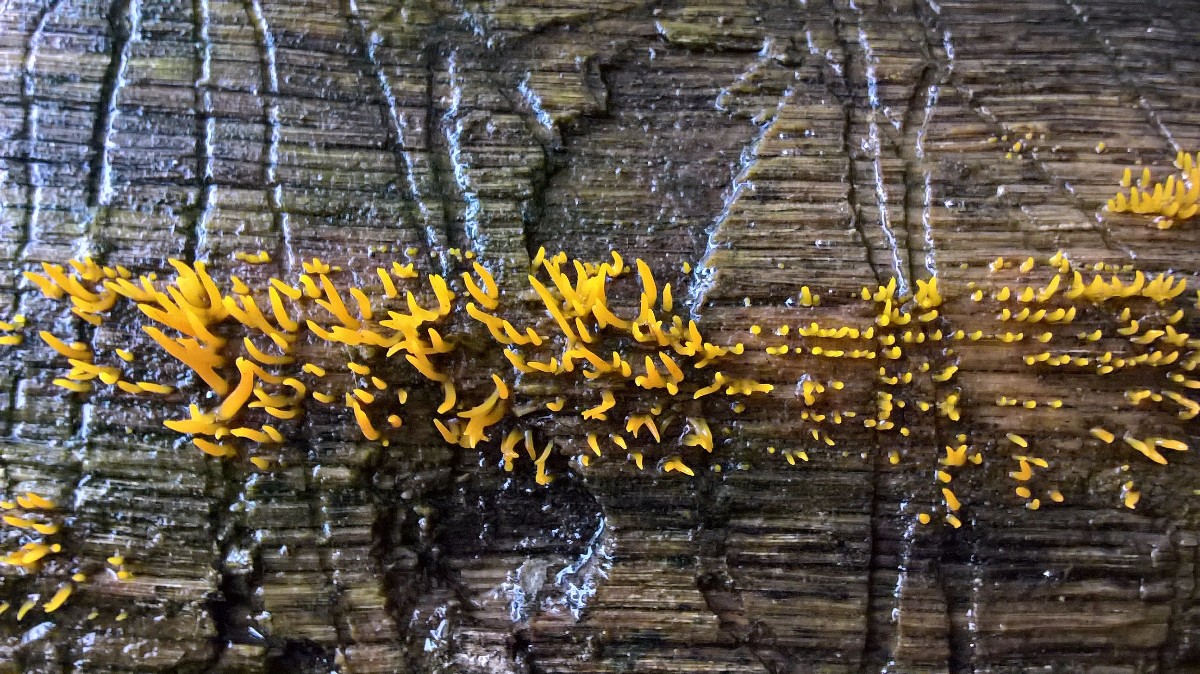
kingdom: Fungi
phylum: Basidiomycota
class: Dacrymycetes
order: Dacrymycetales
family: Dacrymycetaceae
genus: Calocera
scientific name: Calocera cornea
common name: liden guldgaffel
